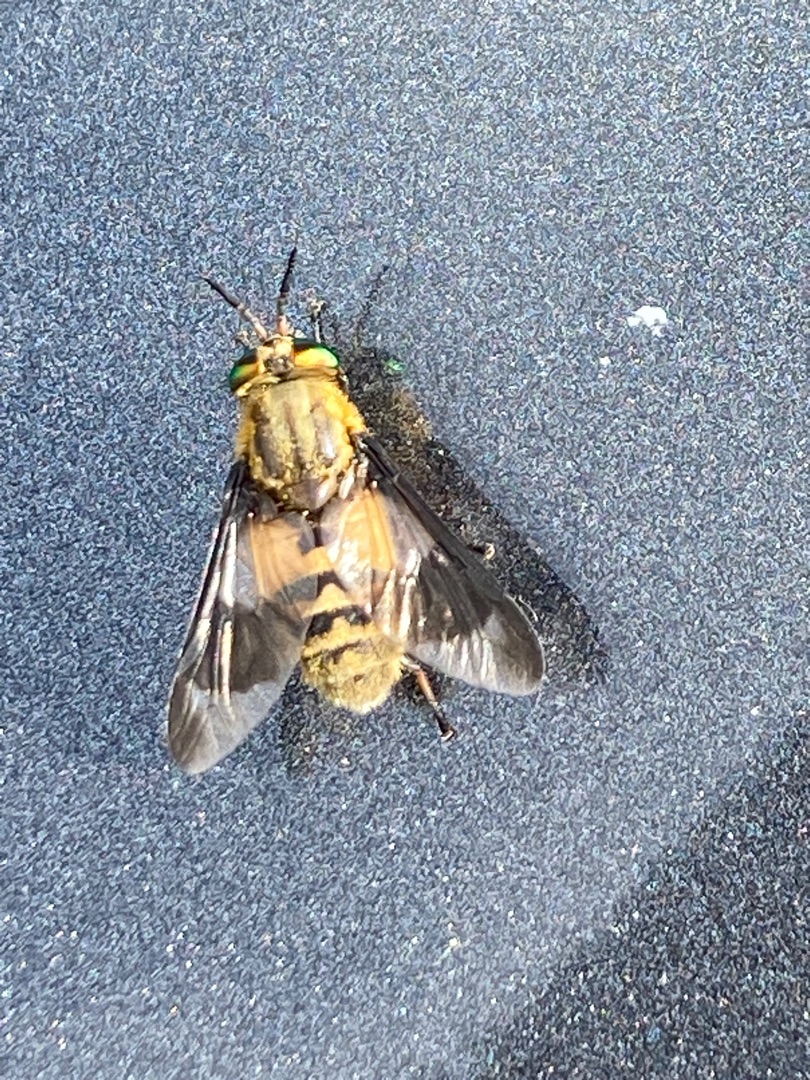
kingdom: Animalia
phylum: Arthropoda
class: Insecta
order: Diptera
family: Tabanidae
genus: Chrysops
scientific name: Chrysops viduatus
